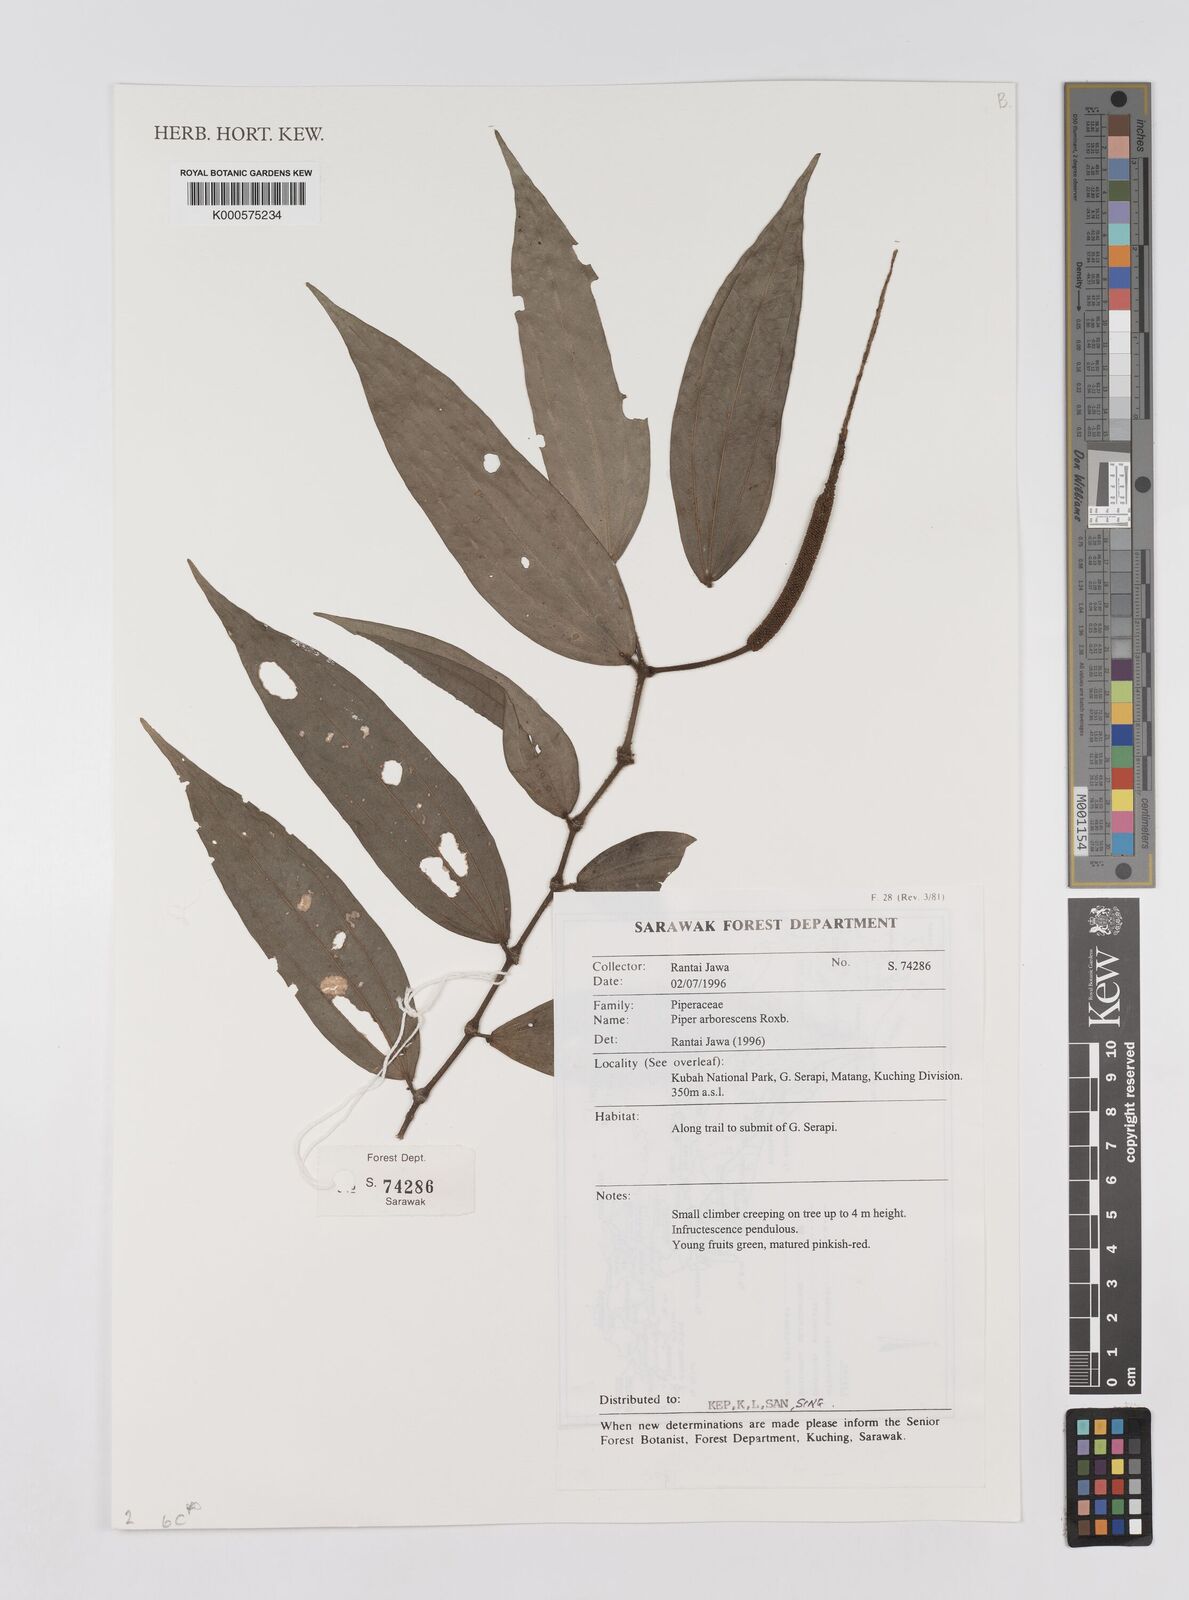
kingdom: Plantae
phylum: Tracheophyta
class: Magnoliopsida
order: Piperales
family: Piperaceae
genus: Piper
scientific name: Piper macropiper
